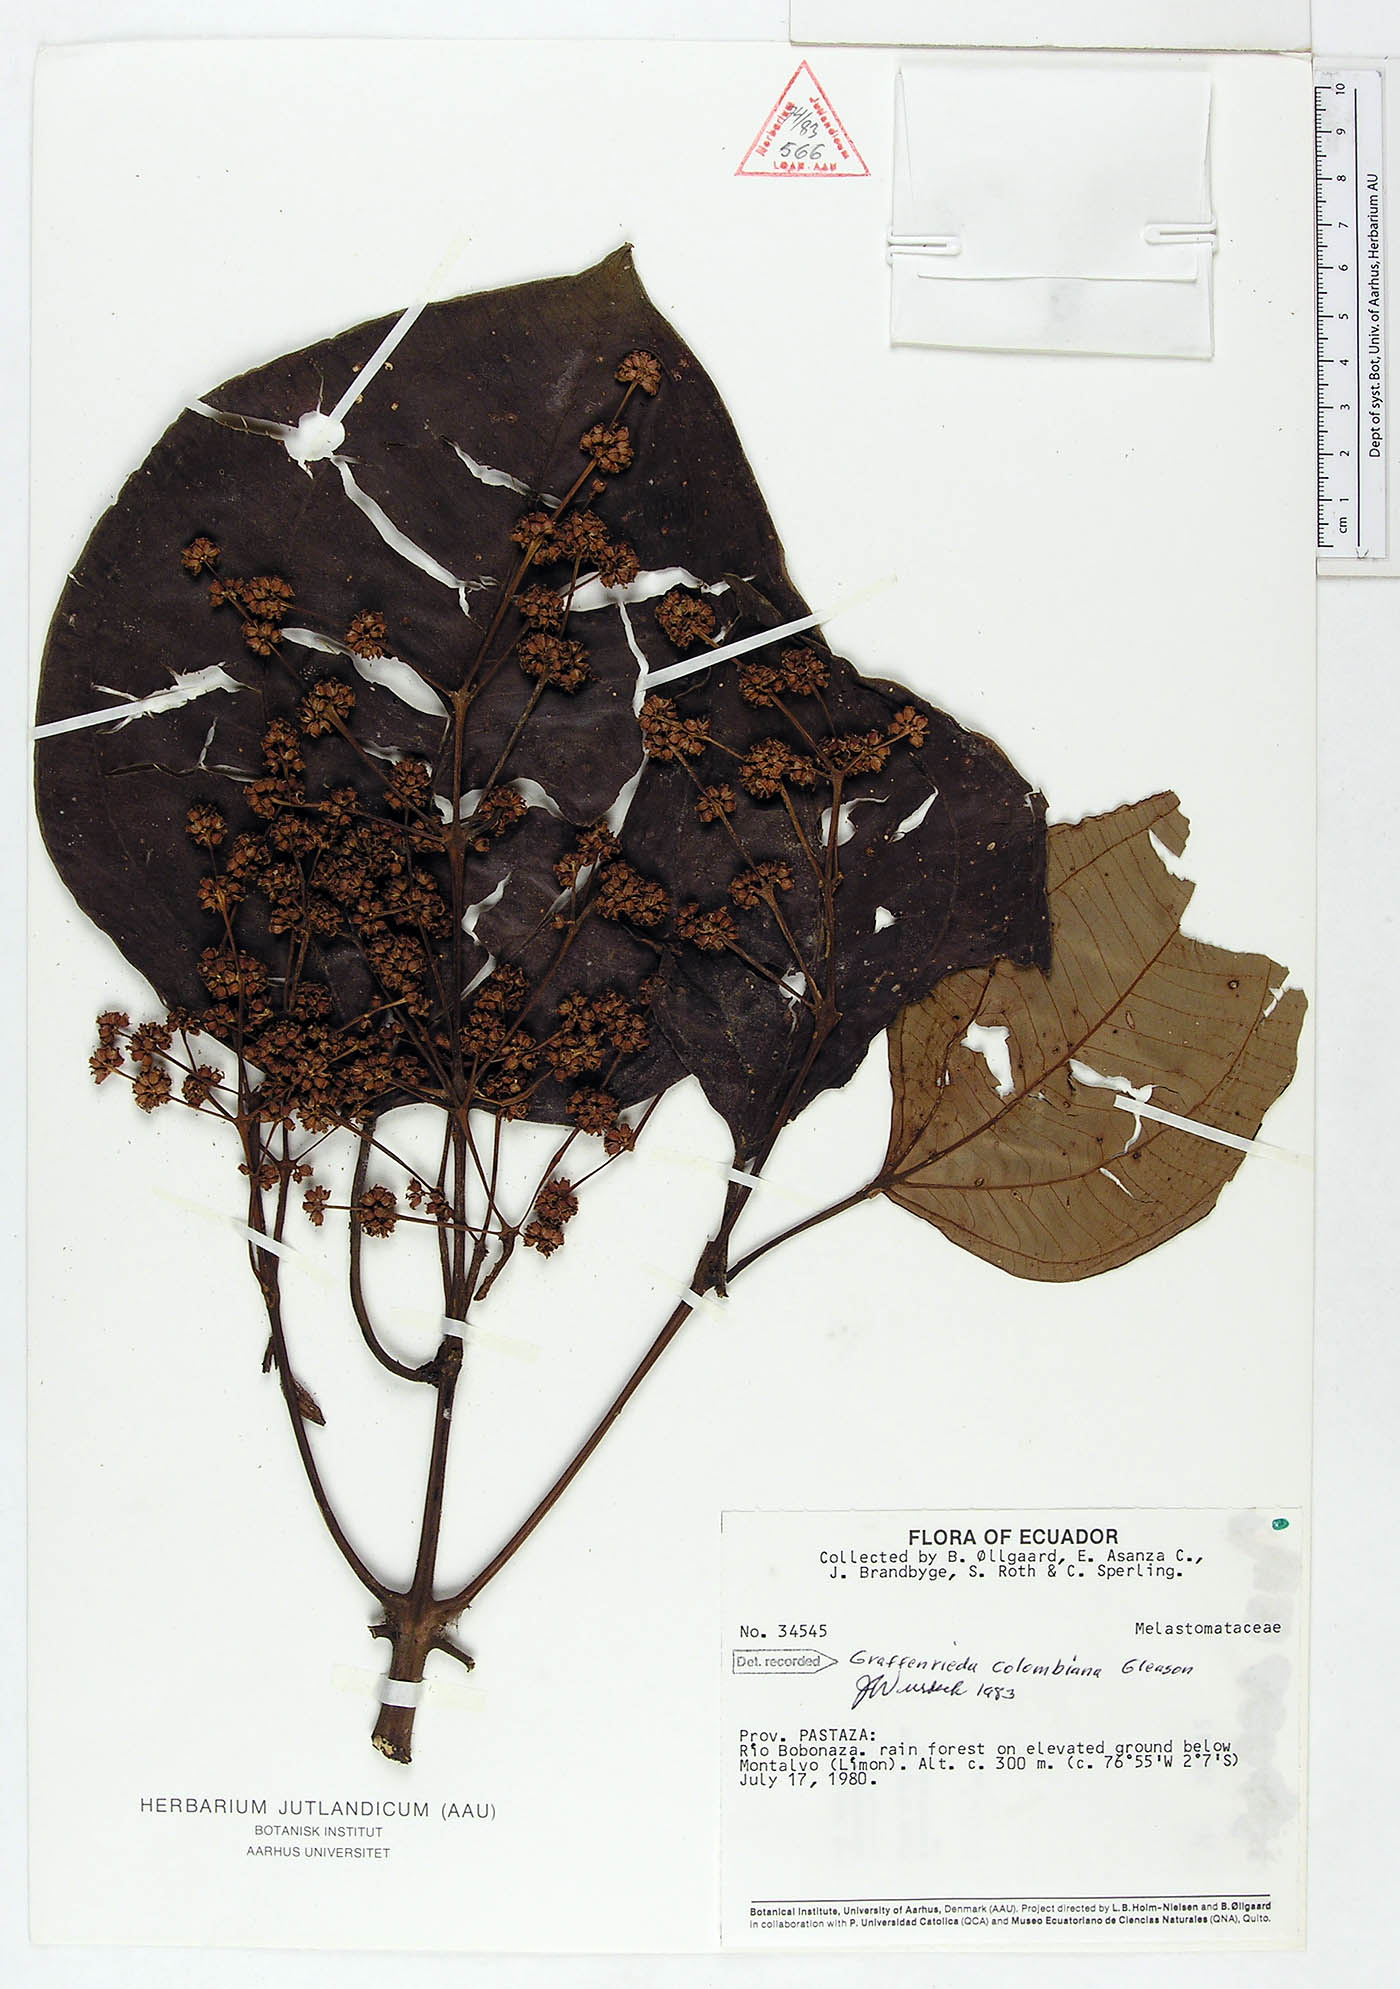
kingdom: Plantae
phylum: Tracheophyta
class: Magnoliopsida
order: Myrtales
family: Melastomataceae
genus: Graffenrieda
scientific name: Graffenrieda colombiana
